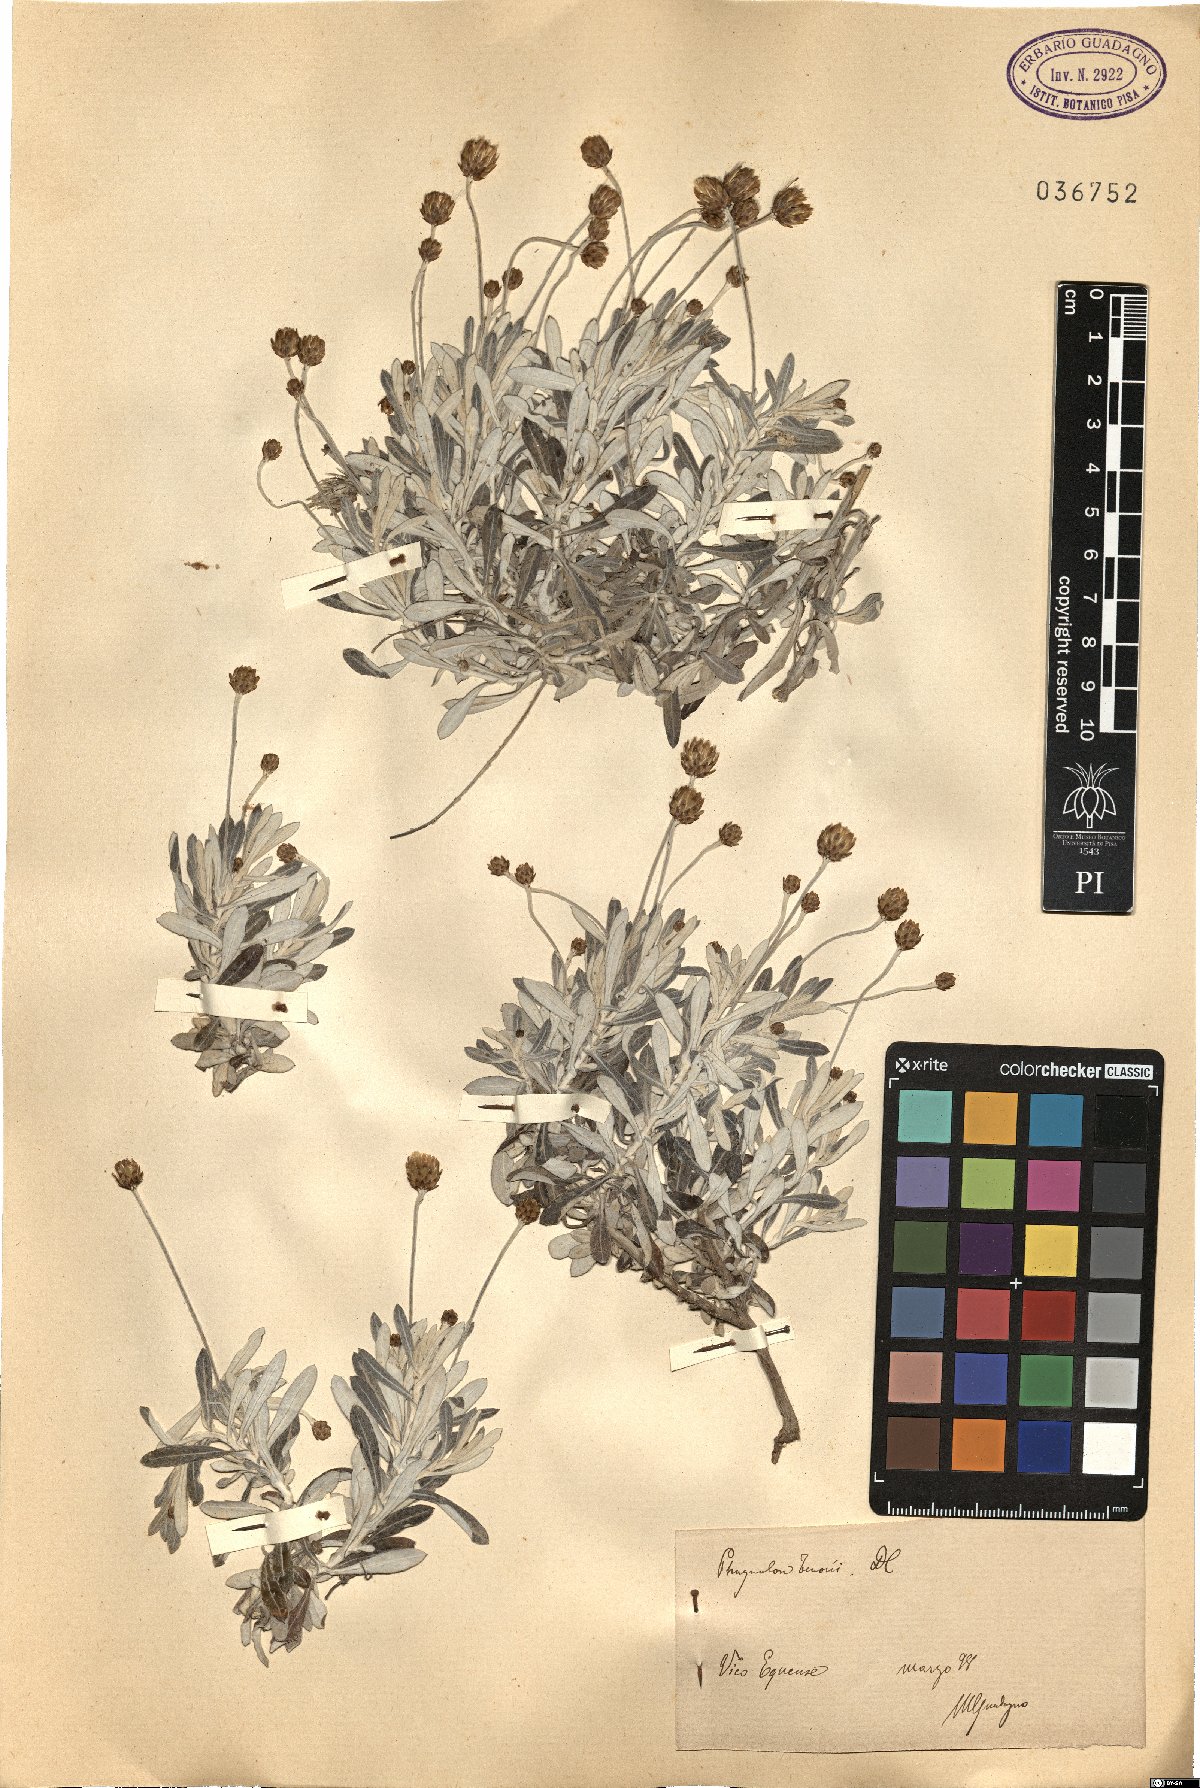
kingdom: Plantae
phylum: Tracheophyta
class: Magnoliopsida
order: Asterales
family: Asteraceae
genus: Phagnalon
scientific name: Phagnalon graecum
